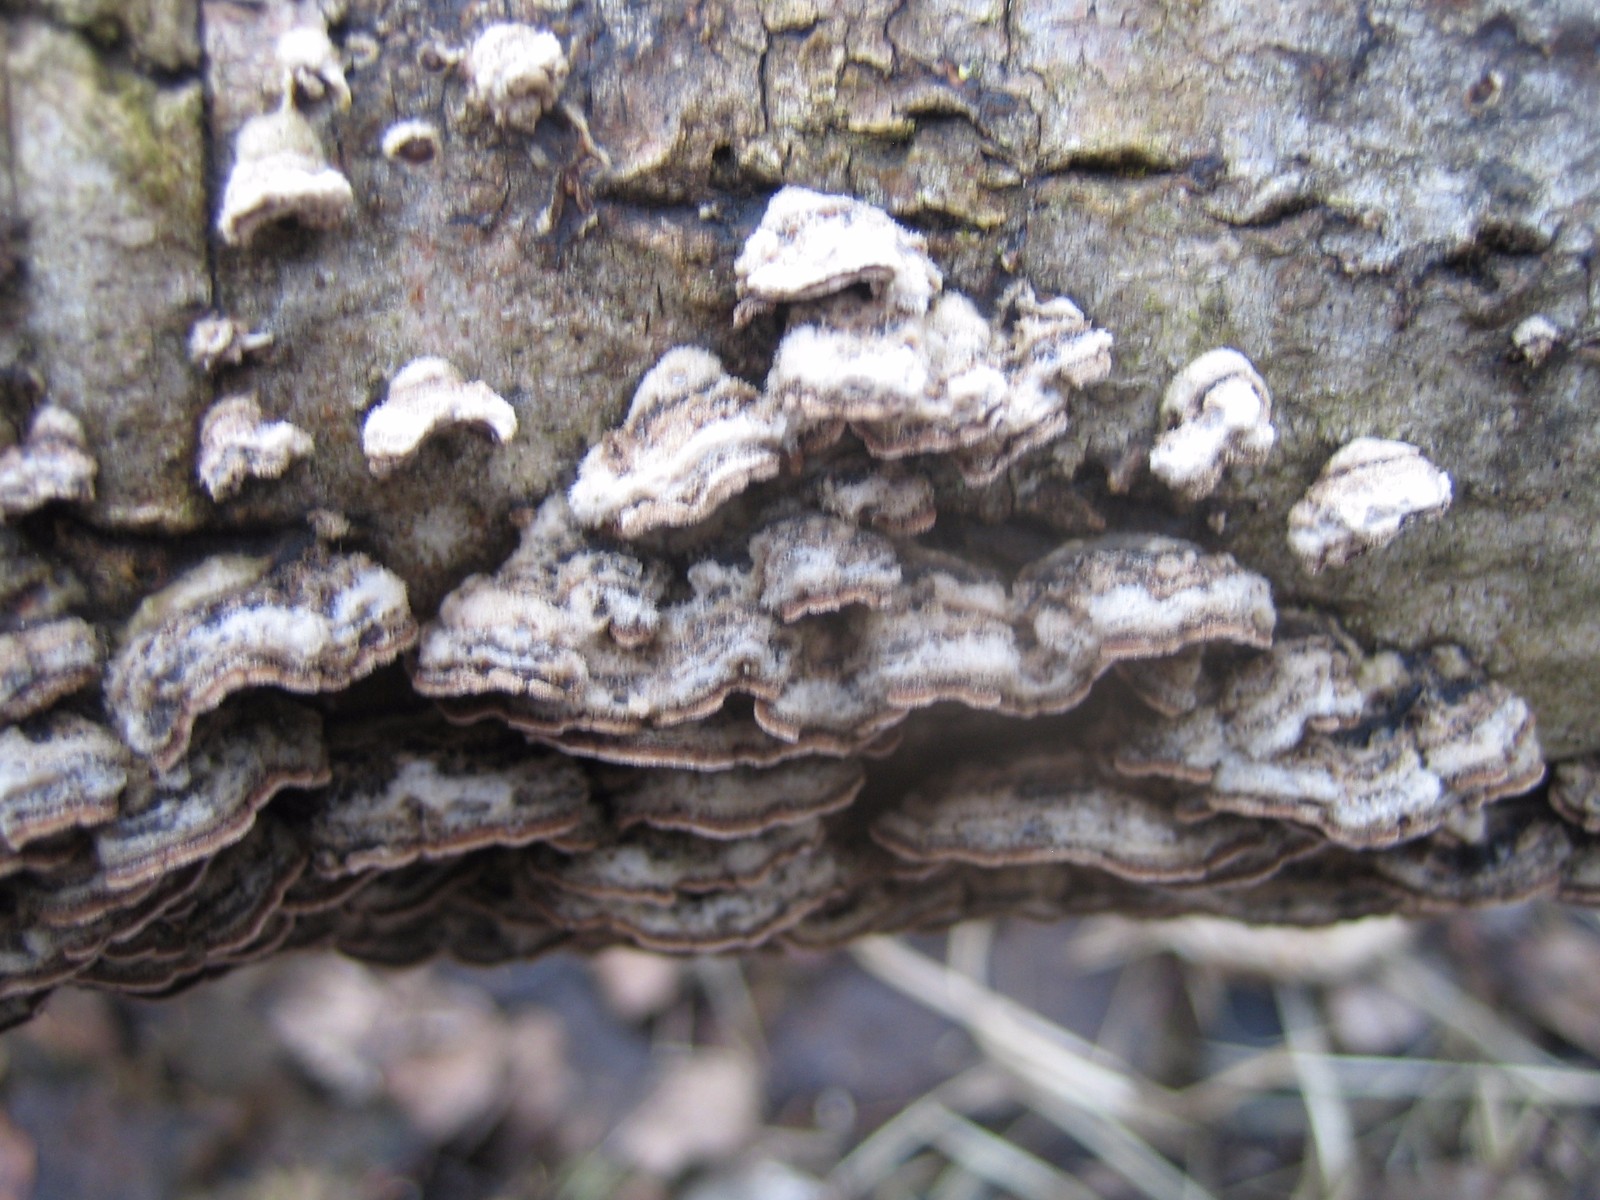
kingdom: Fungi
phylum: Basidiomycota
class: Agaricomycetes
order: Agaricales
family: Cyphellaceae
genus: Chondrostereum
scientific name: Chondrostereum purpureum
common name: purpurlædersvamp
